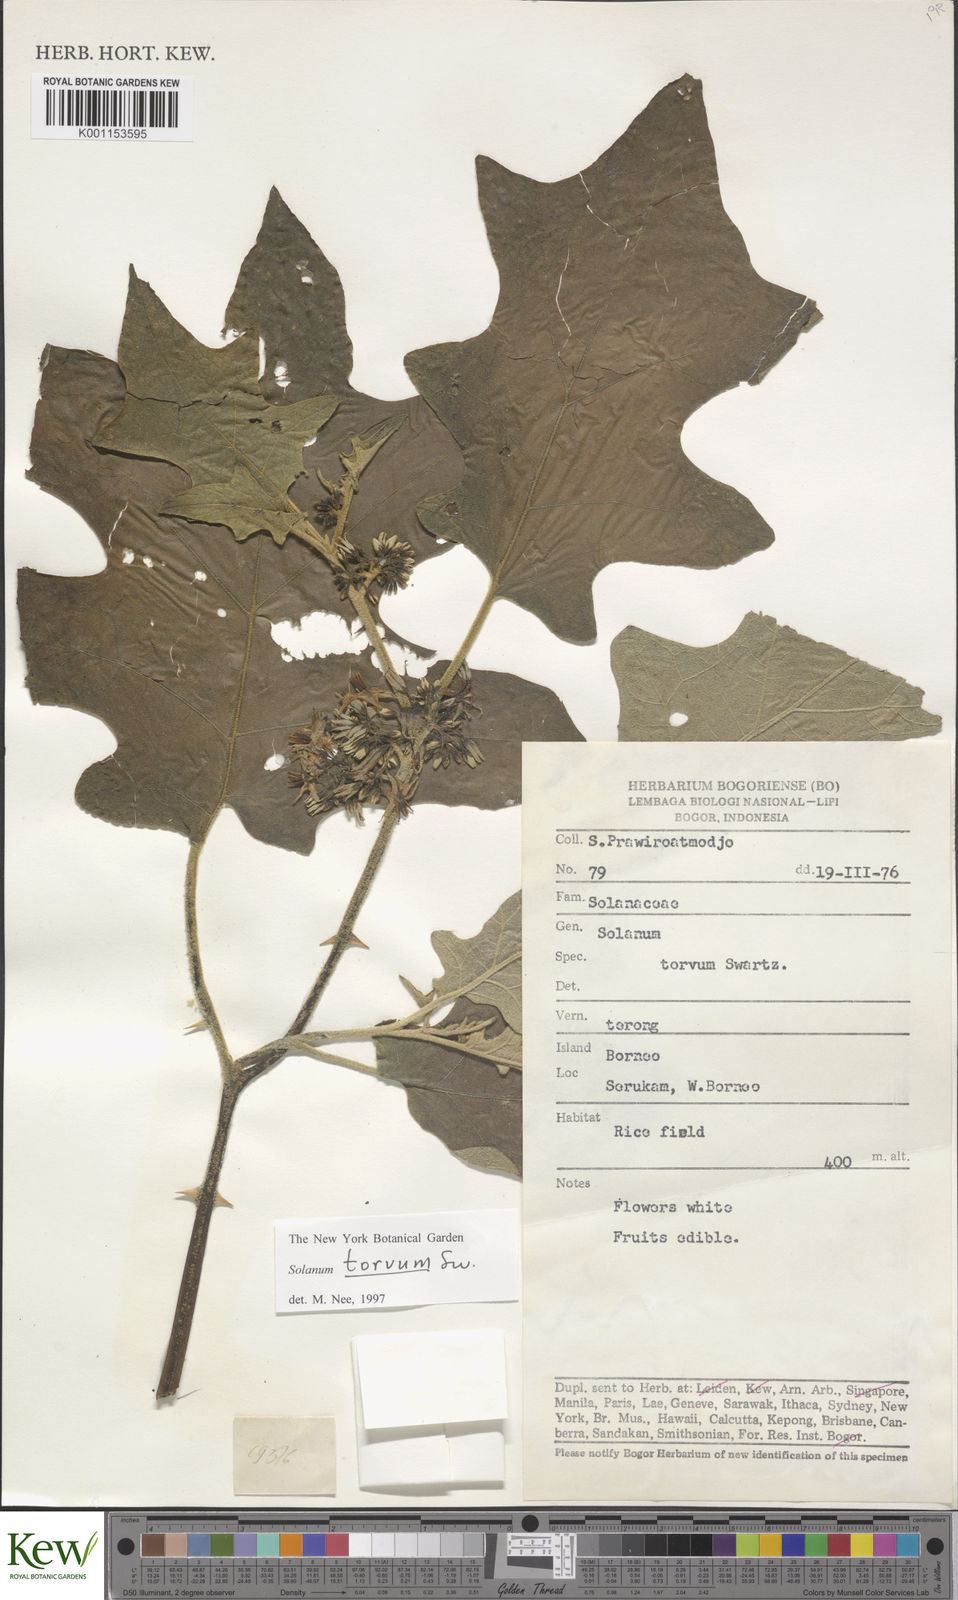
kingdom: Plantae
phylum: Tracheophyta
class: Magnoliopsida
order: Solanales
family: Solanaceae
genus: Solanum
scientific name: Solanum torvum
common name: Turkey berry
